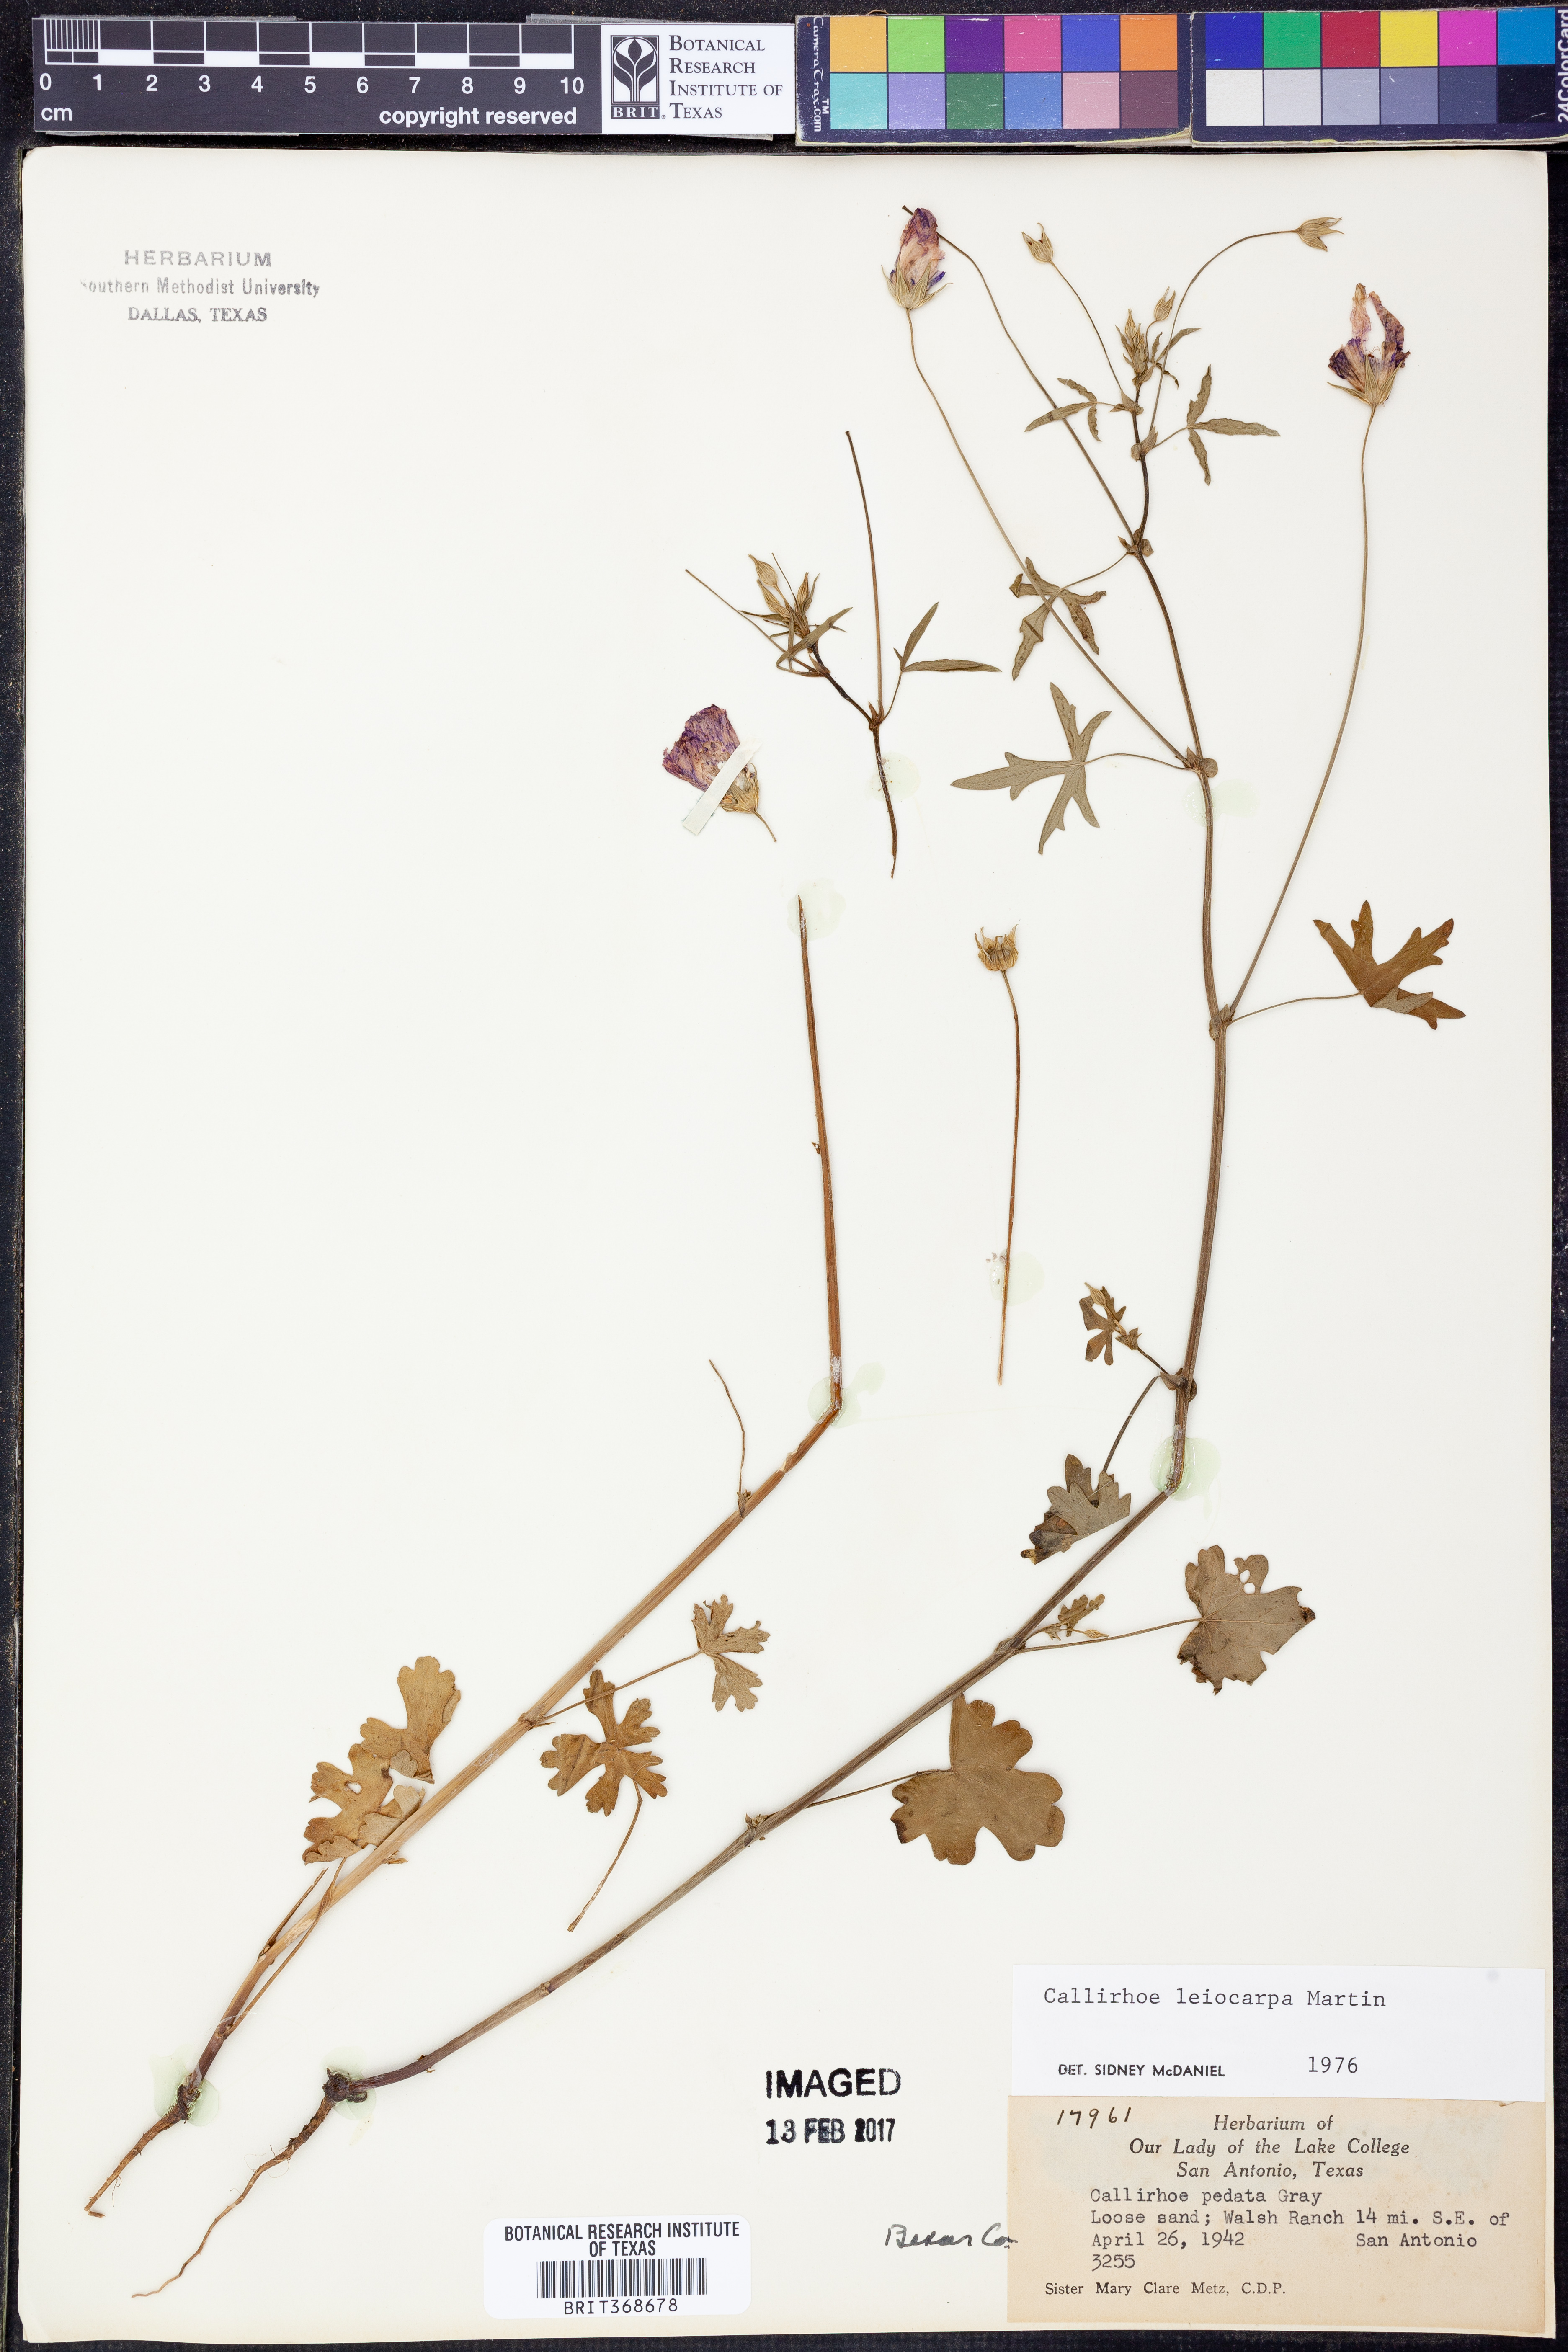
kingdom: Plantae
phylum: Tracheophyta
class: Magnoliopsida
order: Malvales
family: Malvaceae
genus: Callirhoe
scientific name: Callirhoe leiocarpa
